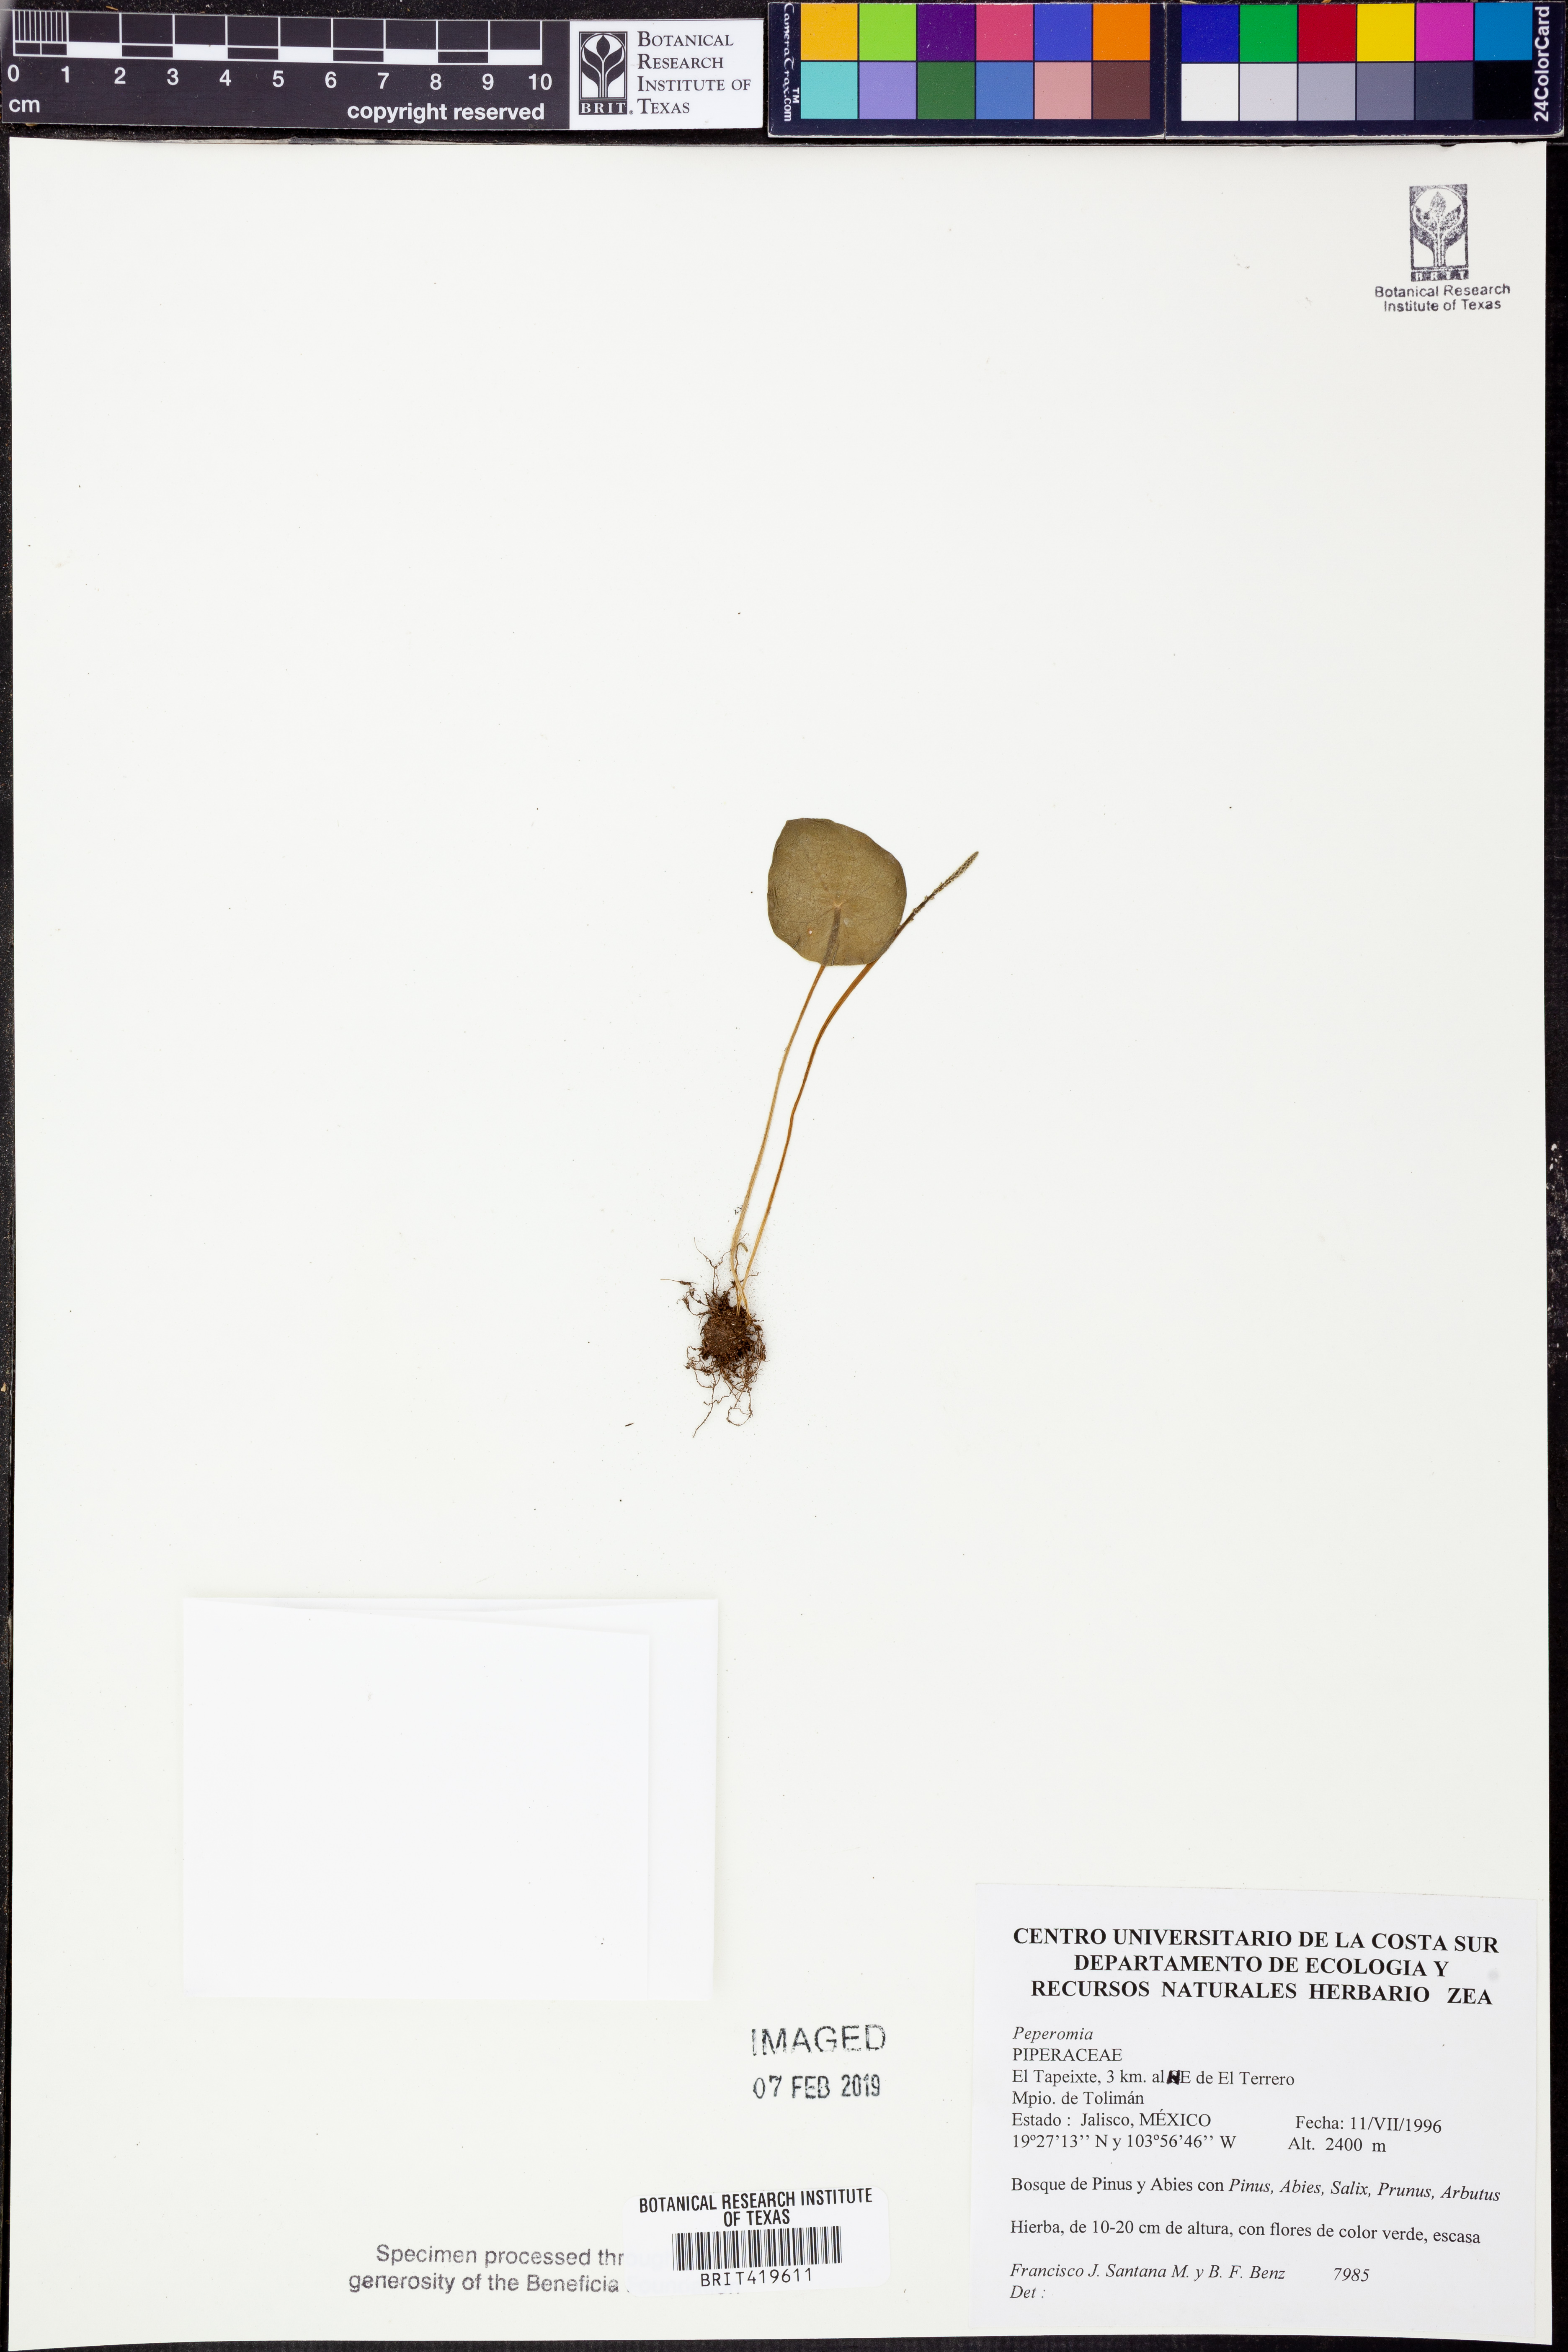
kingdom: Plantae
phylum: Tracheophyta
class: Magnoliopsida
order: Piperales
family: Piperaceae
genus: Peperomia
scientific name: Peperomia
